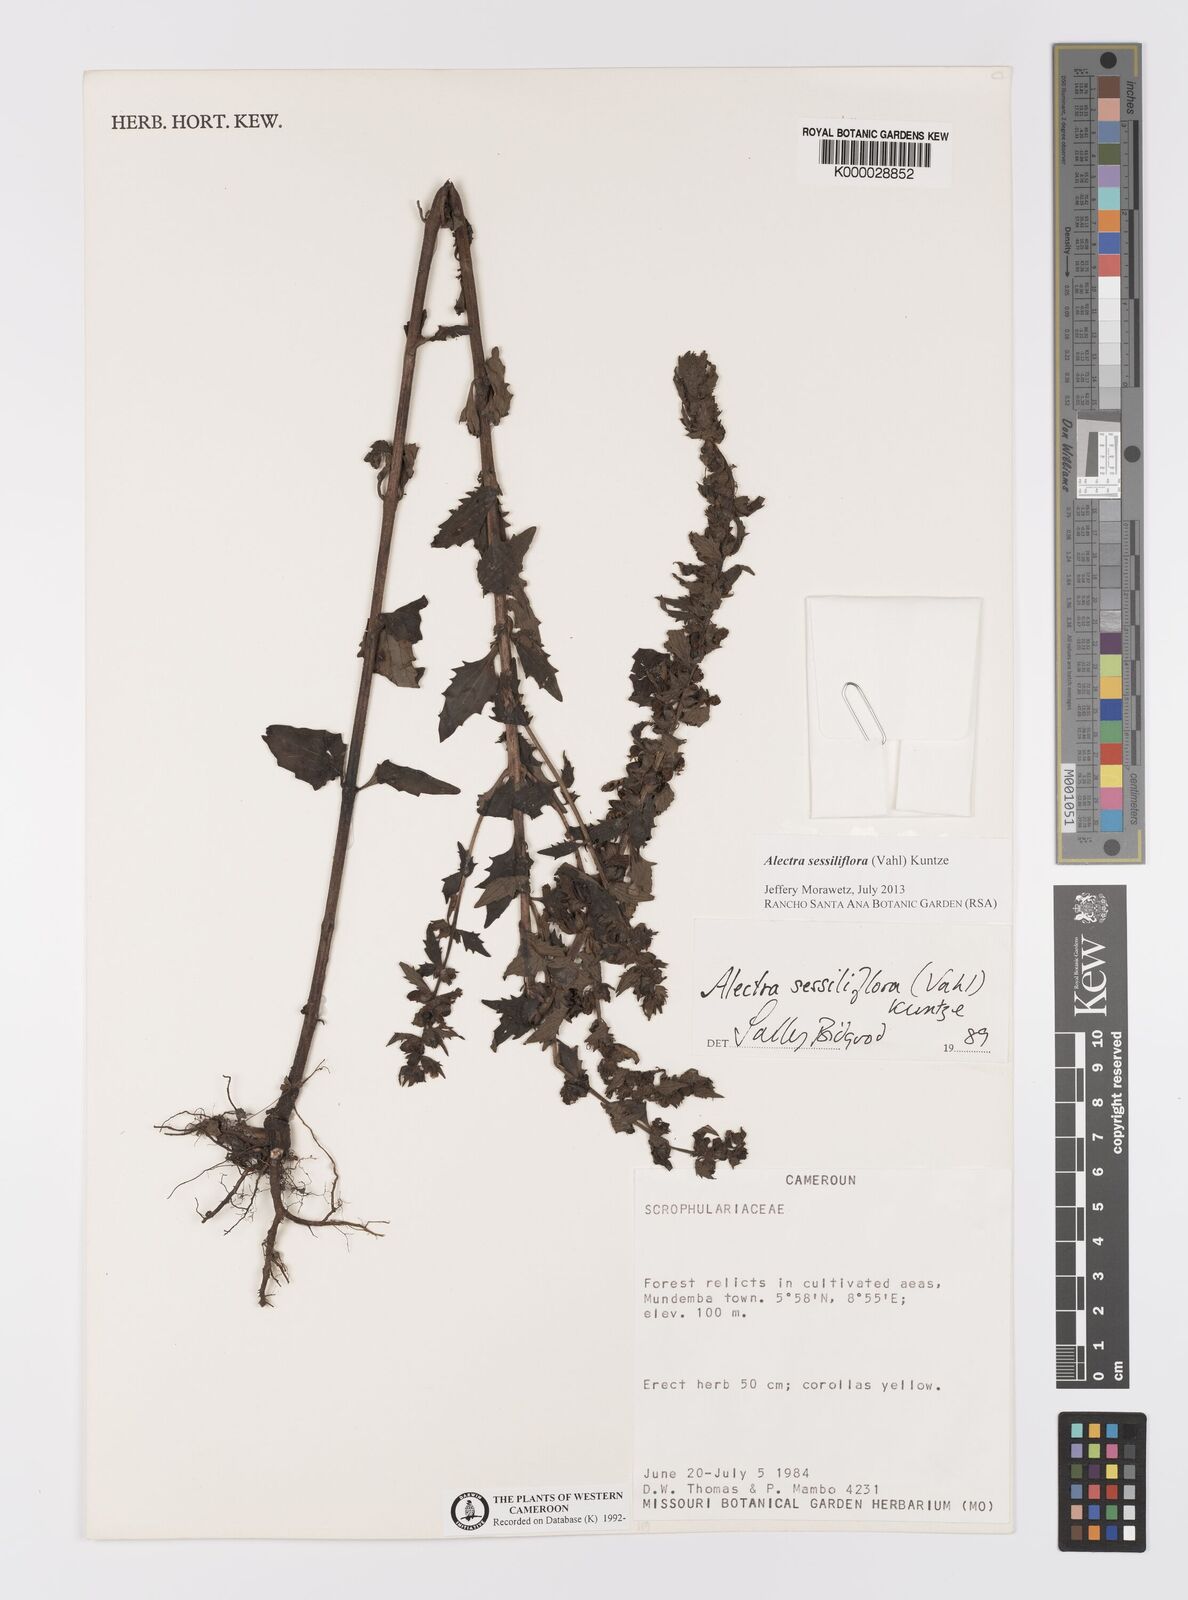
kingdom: Plantae
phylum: Tracheophyta
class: Magnoliopsida
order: Lamiales
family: Orobanchaceae
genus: Alectra
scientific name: Alectra sessiliflora
